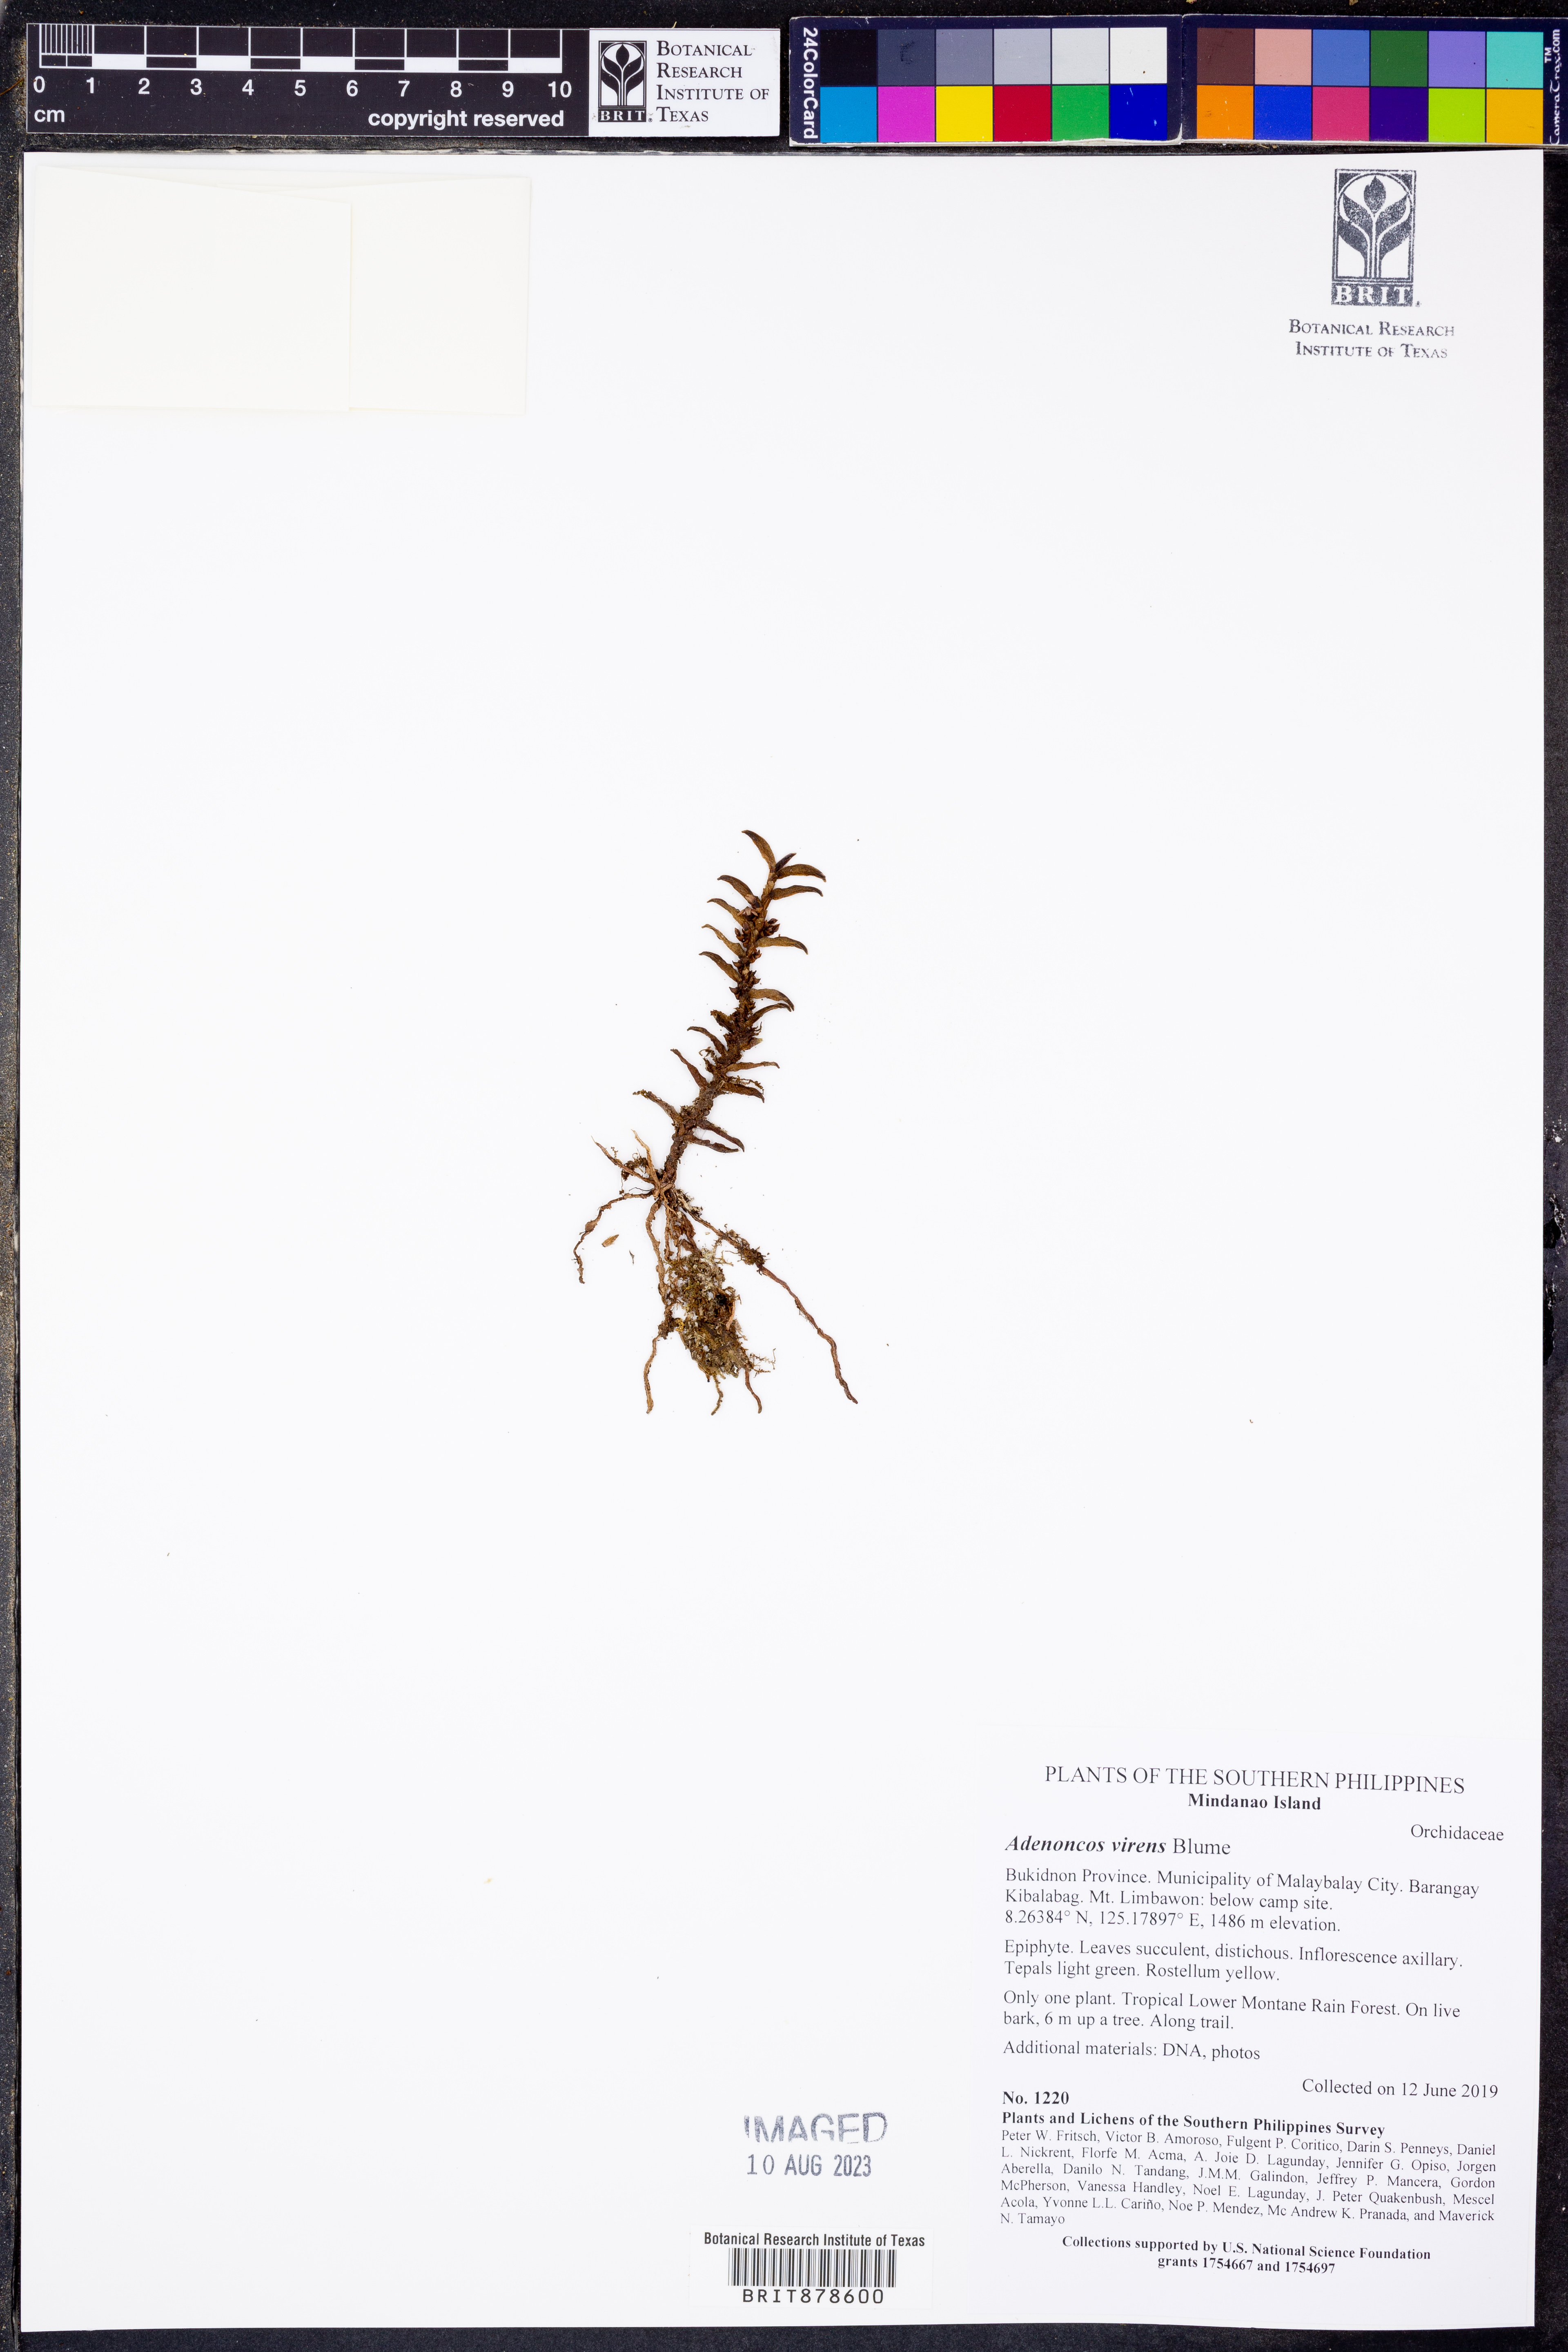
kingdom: Plantae
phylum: Tracheophyta
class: Liliopsida
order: Asparagales
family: Orchidaceae
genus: Adenoncos
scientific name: Adenoncos virens
